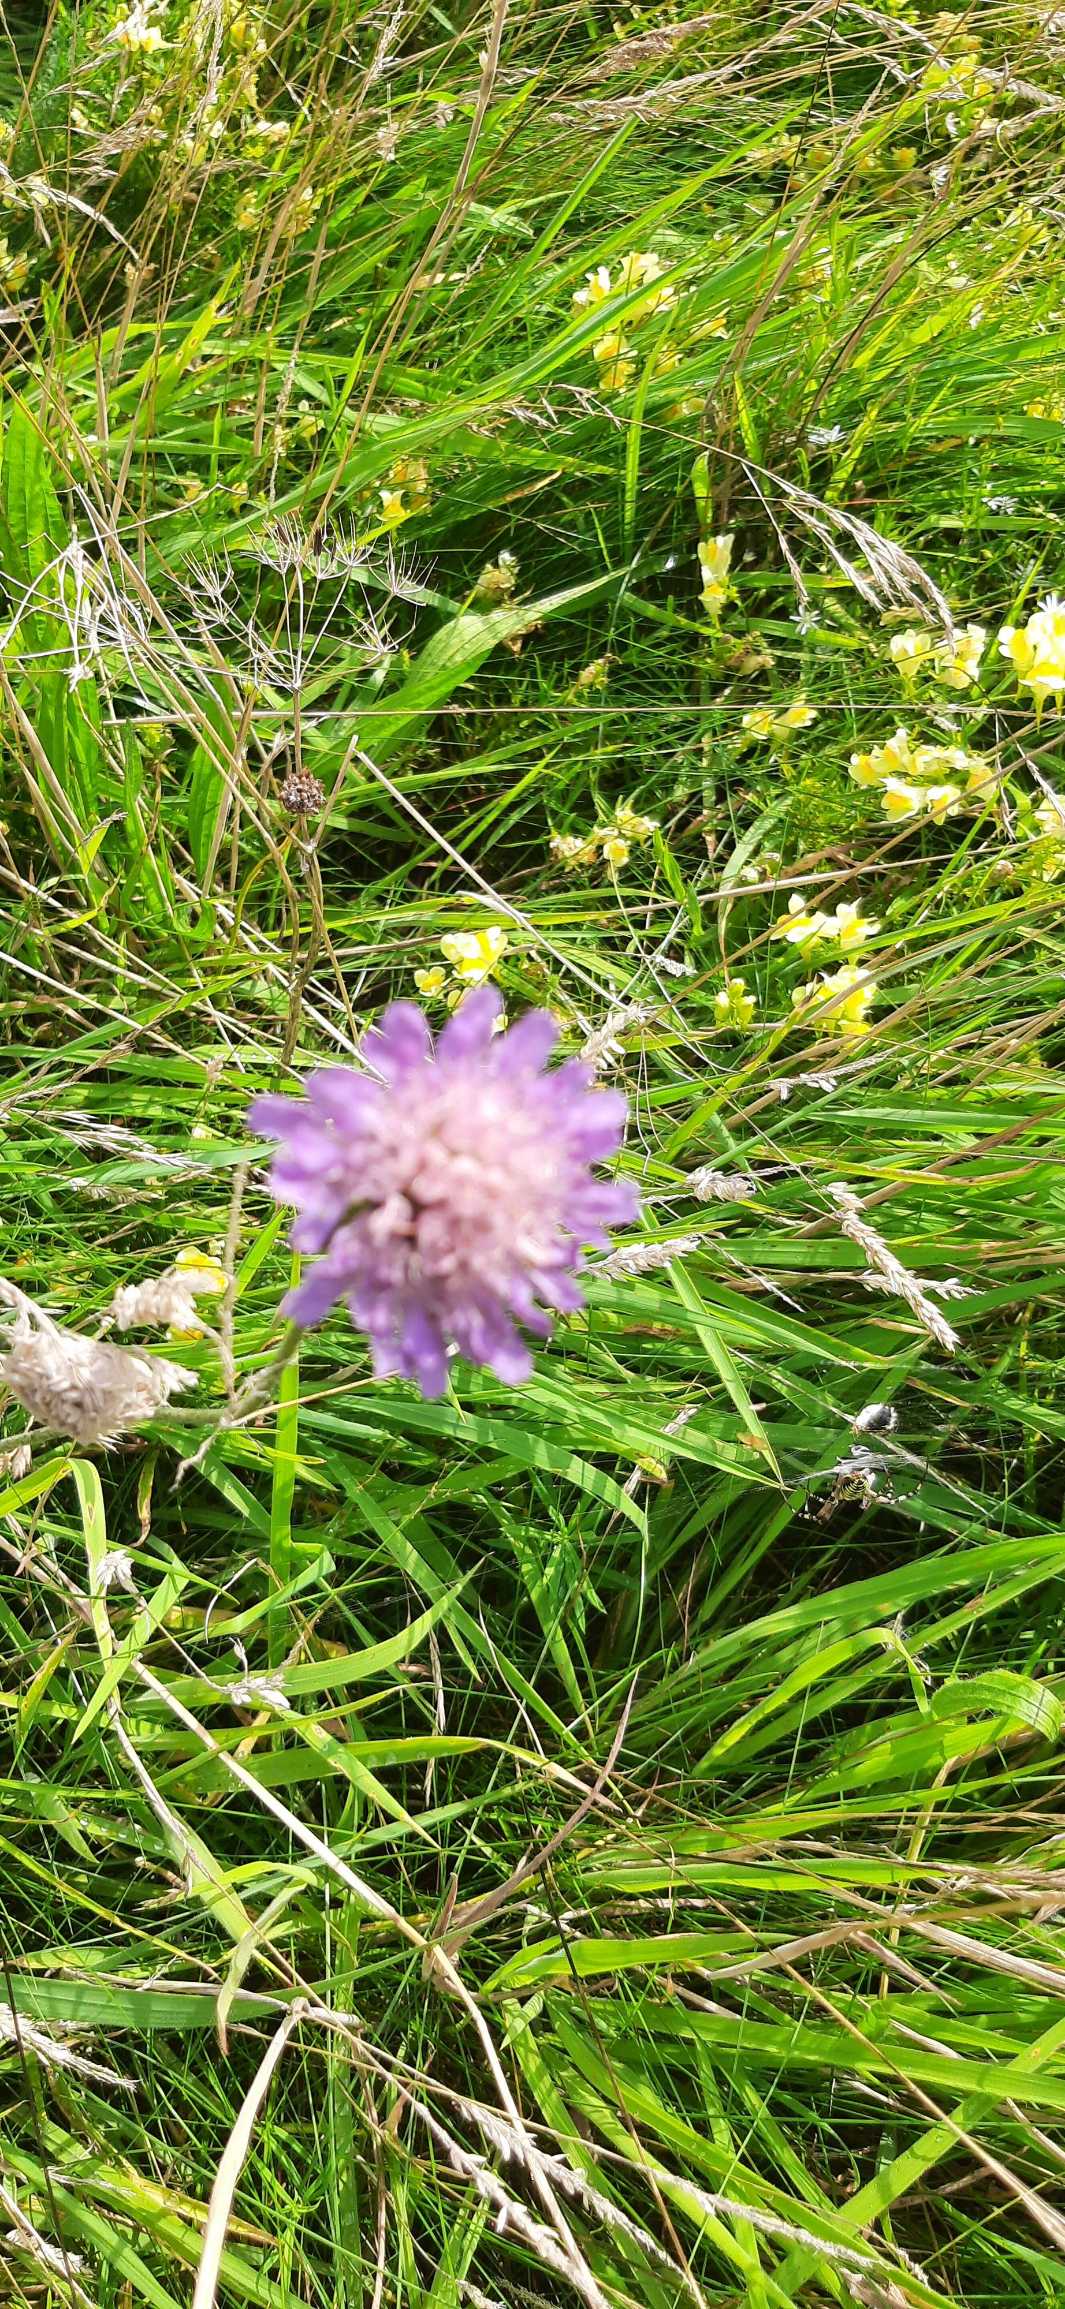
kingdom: Plantae
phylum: Tracheophyta
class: Magnoliopsida
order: Dipsacales
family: Caprifoliaceae
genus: Knautia
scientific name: Knautia arvensis
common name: Blåhat
